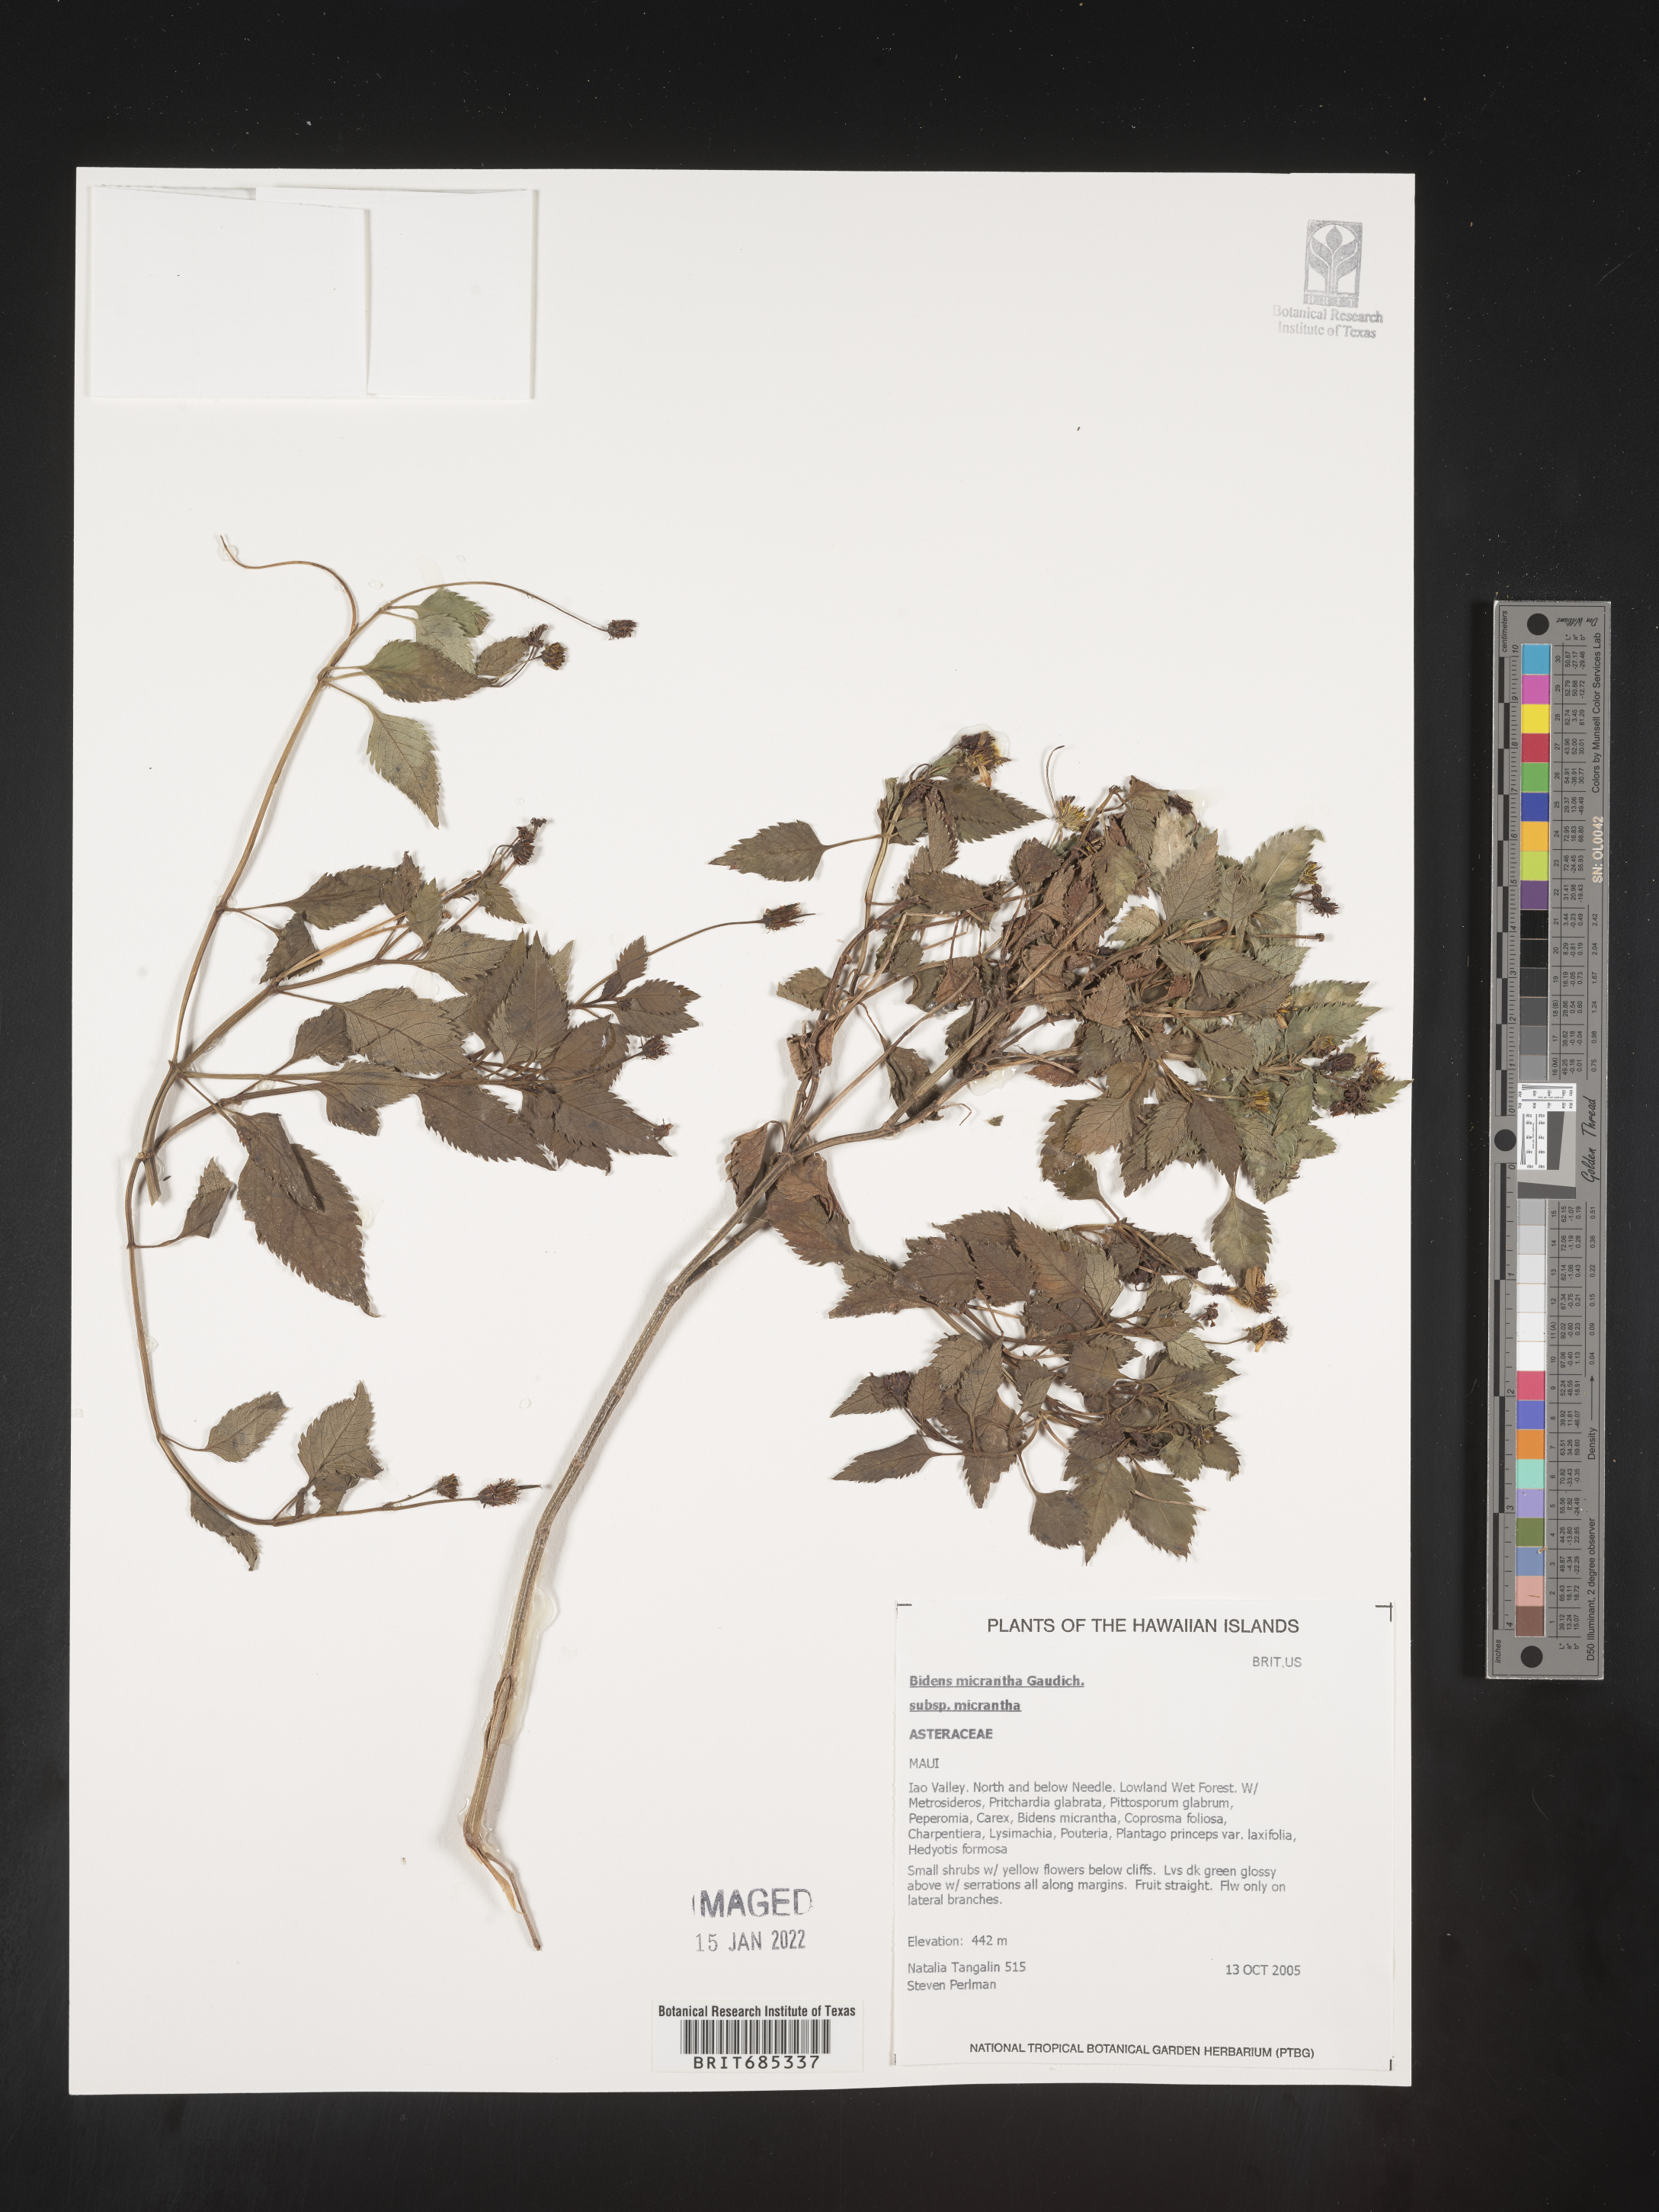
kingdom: Plantae
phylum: Tracheophyta
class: Magnoliopsida
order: Asterales
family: Asteraceae
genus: Bidens
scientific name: Bidens
